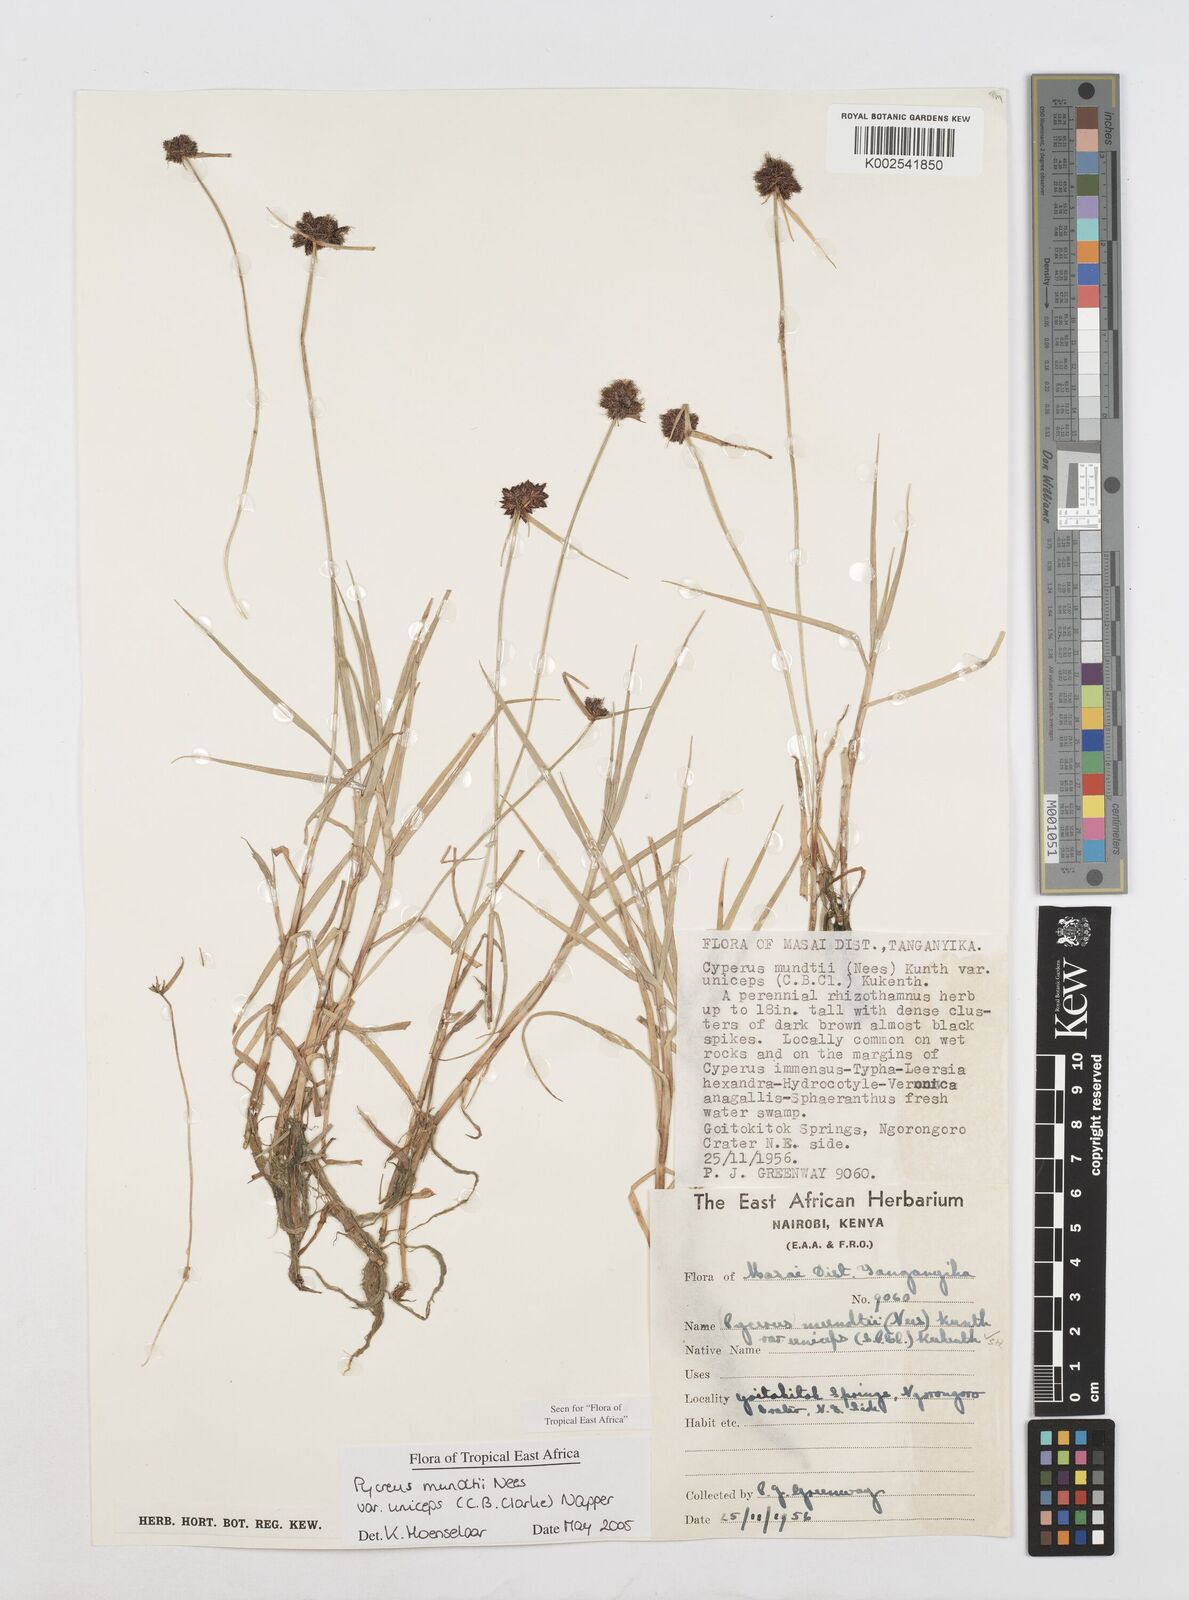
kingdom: Plantae
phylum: Tracheophyta
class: Liliopsida
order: Poales
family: Cyperaceae
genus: Cyperus
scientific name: Cyperus mundii
